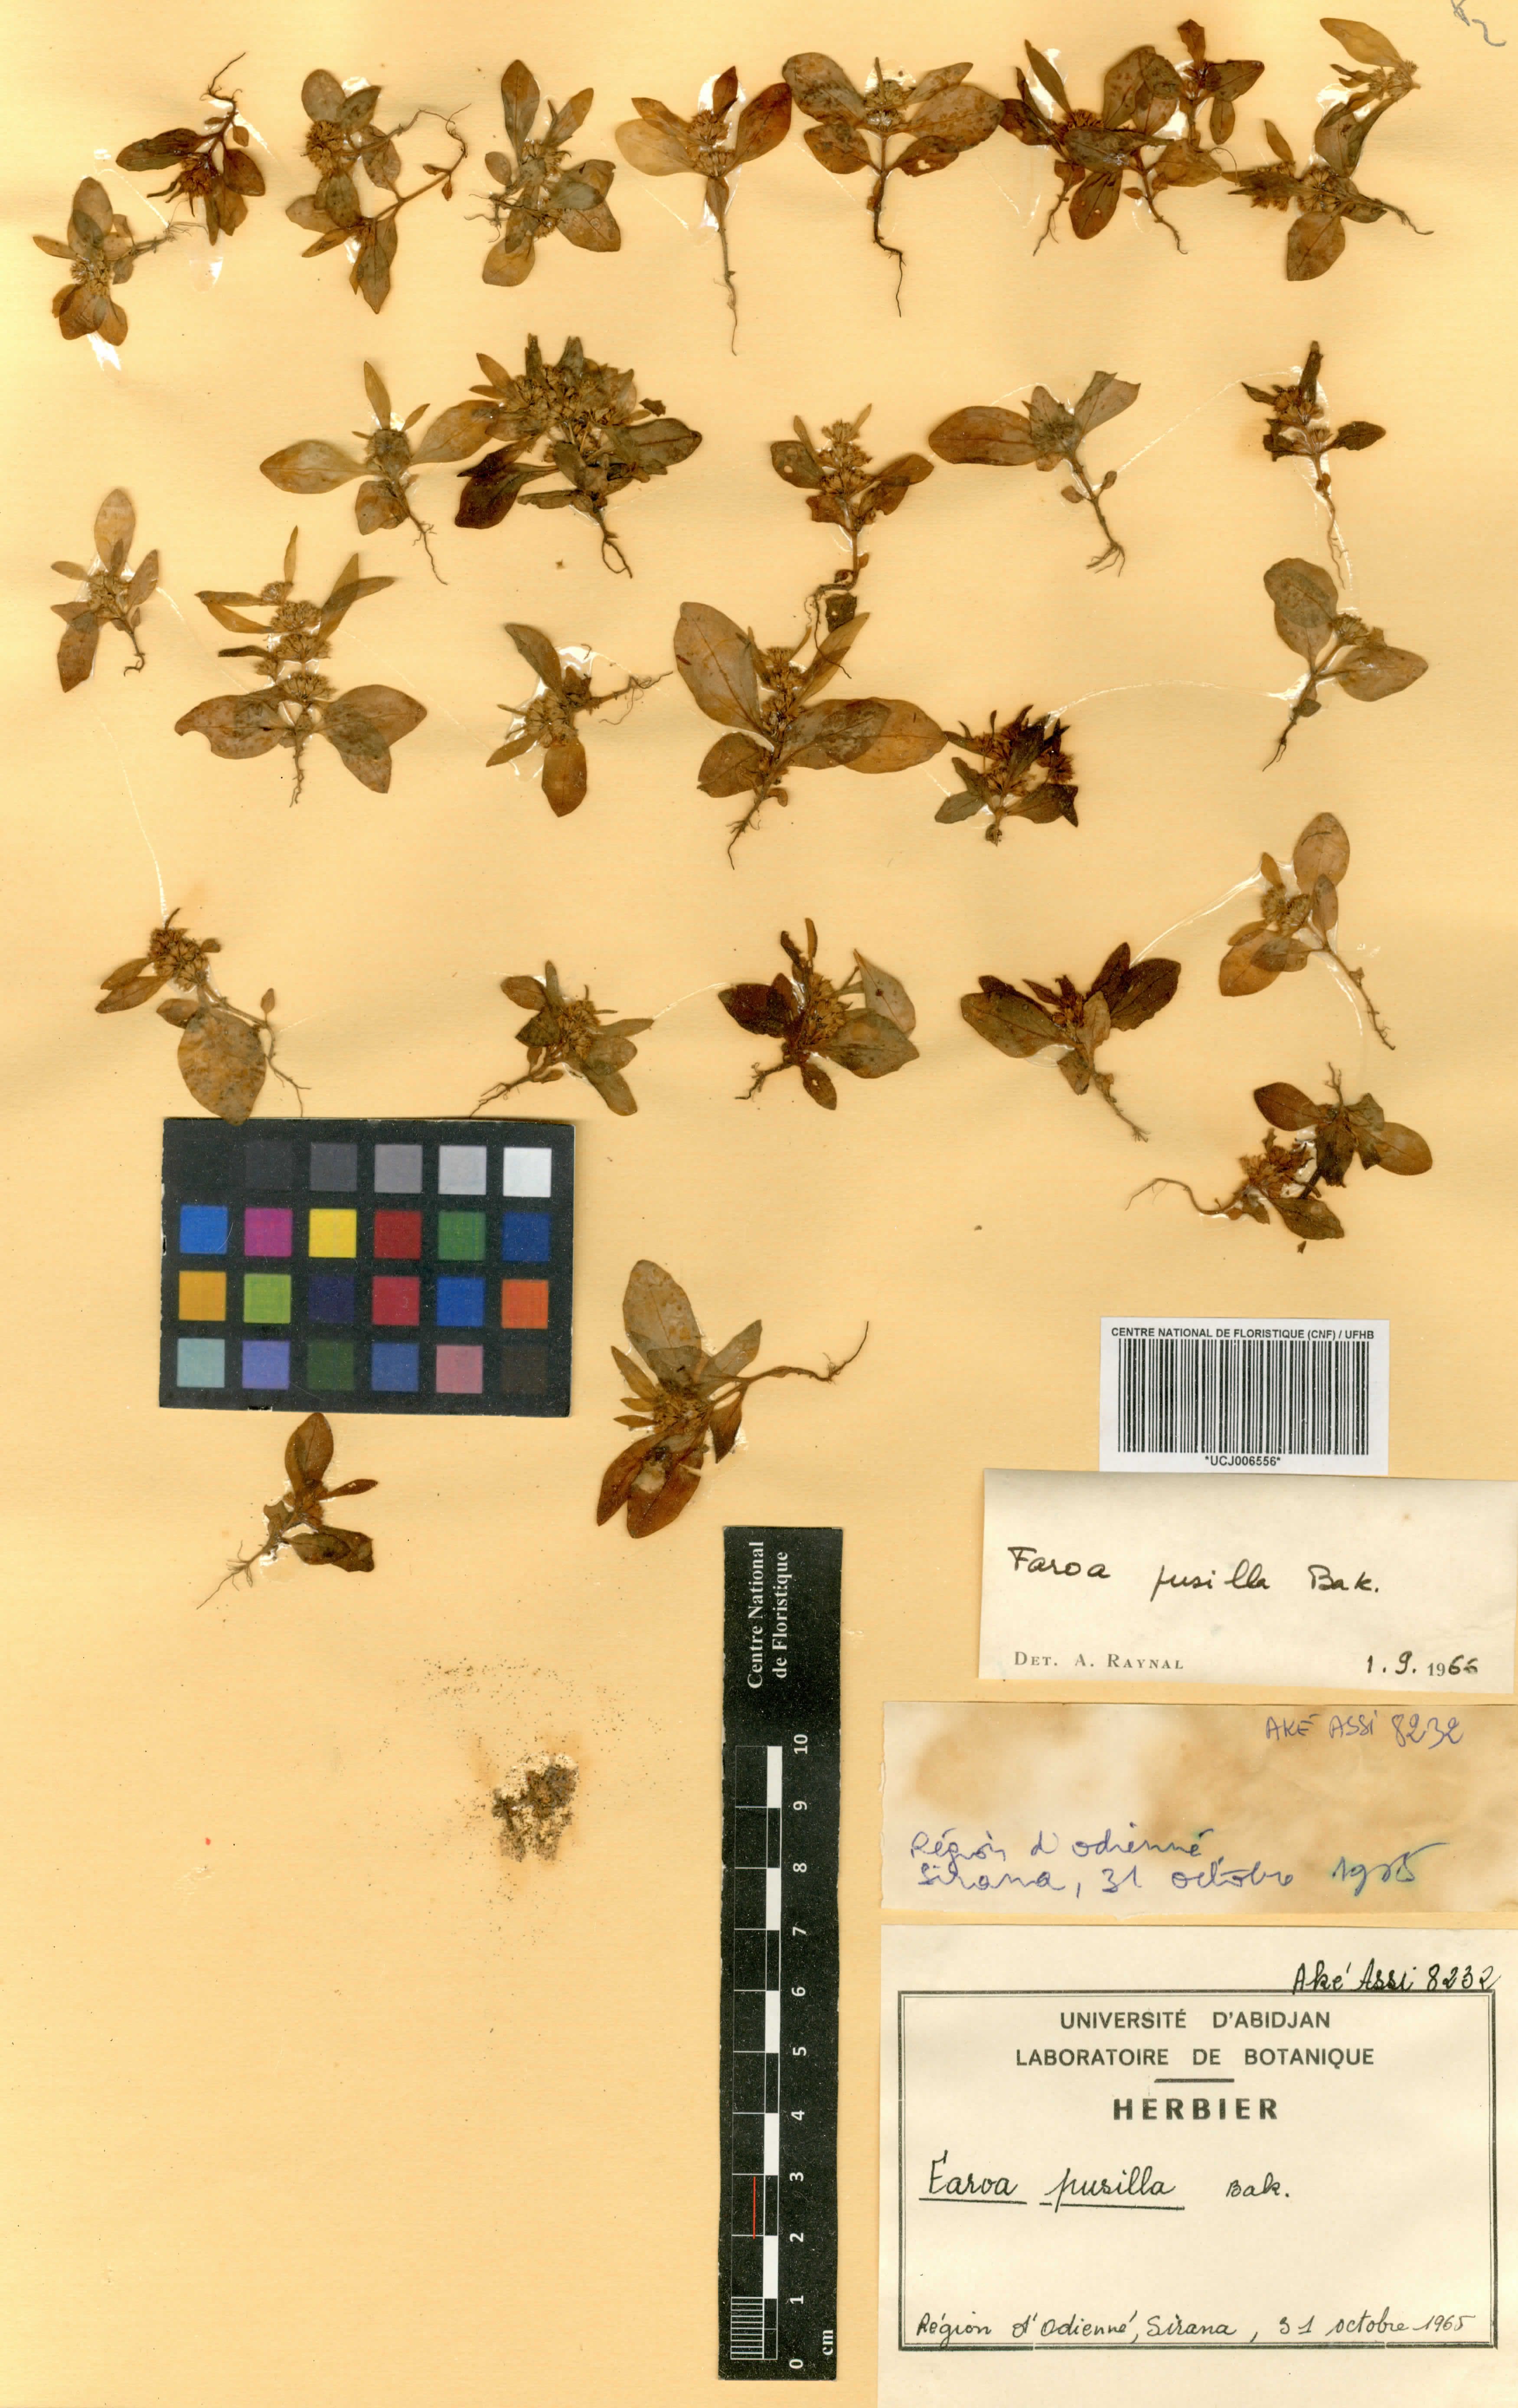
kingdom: Plantae
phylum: Tracheophyta
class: Magnoliopsida
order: Gentianales
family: Gentianaceae
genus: Faroa
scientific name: Faroa pusilla
